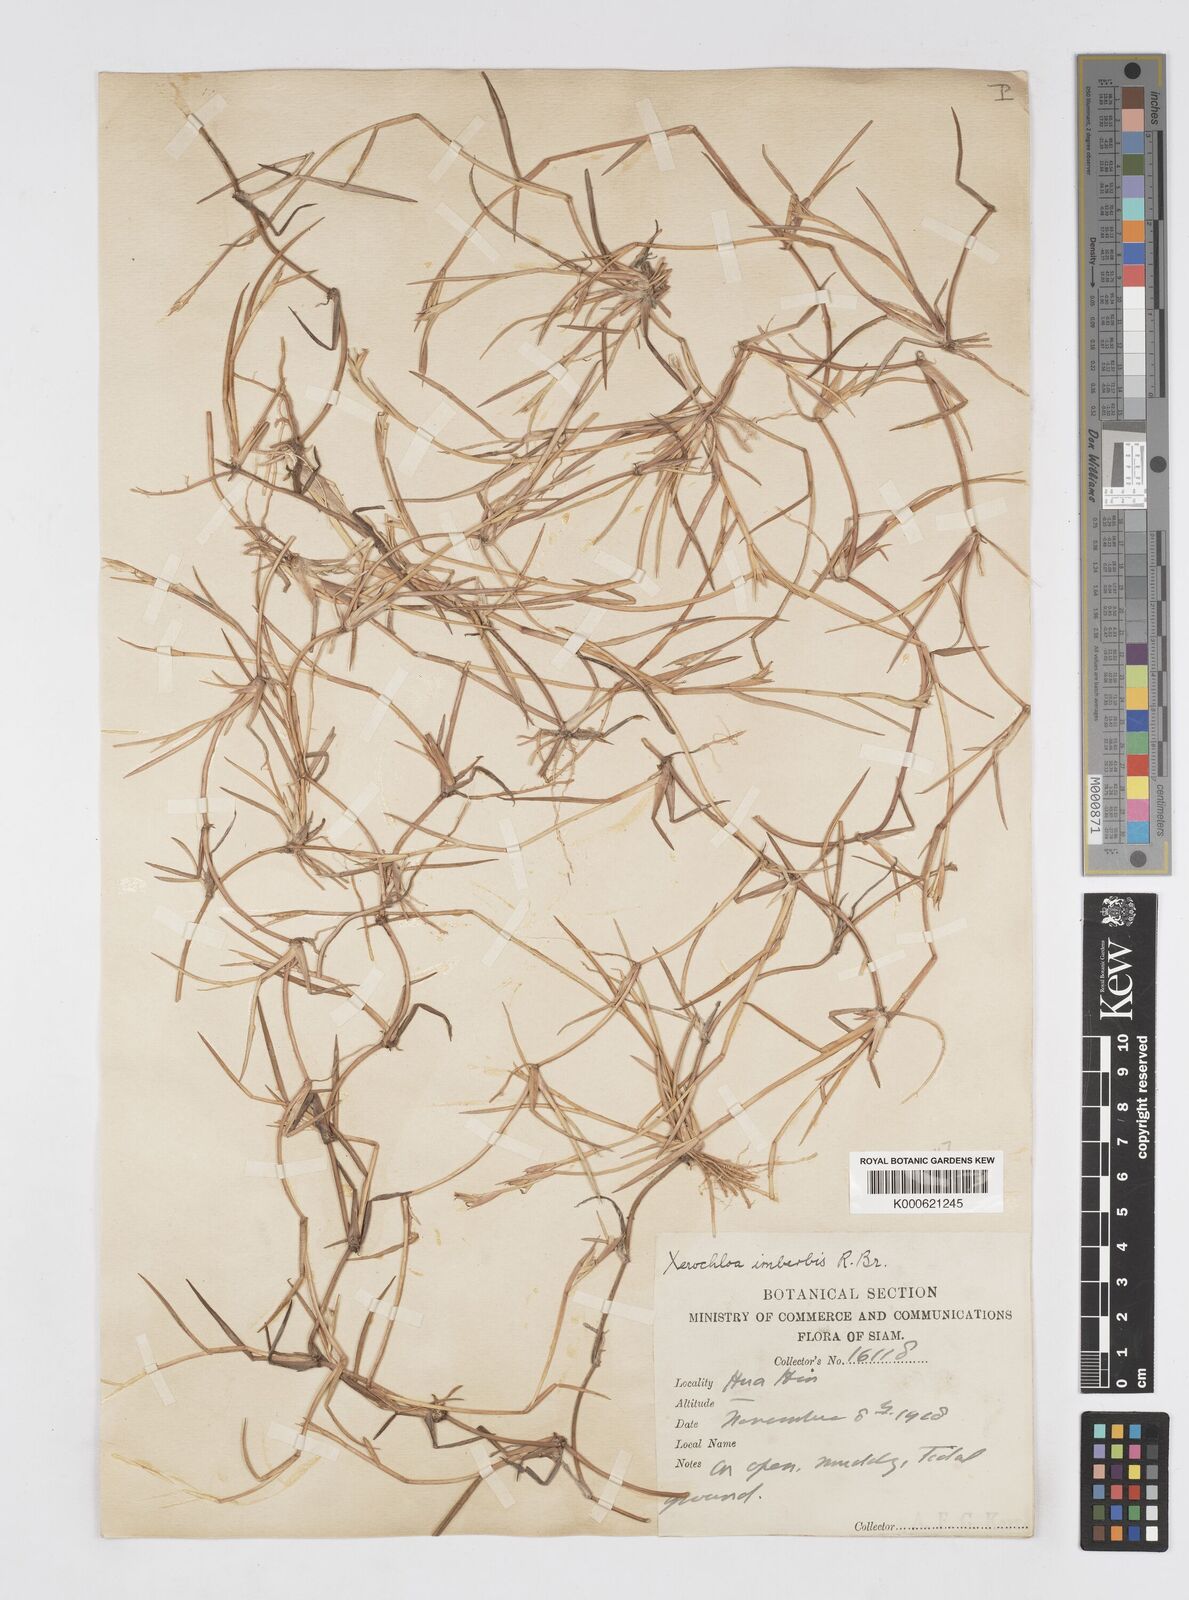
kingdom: Plantae
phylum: Tracheophyta
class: Liliopsida
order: Poales
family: Poaceae
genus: Xerochloa
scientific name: Xerochloa imberbis
